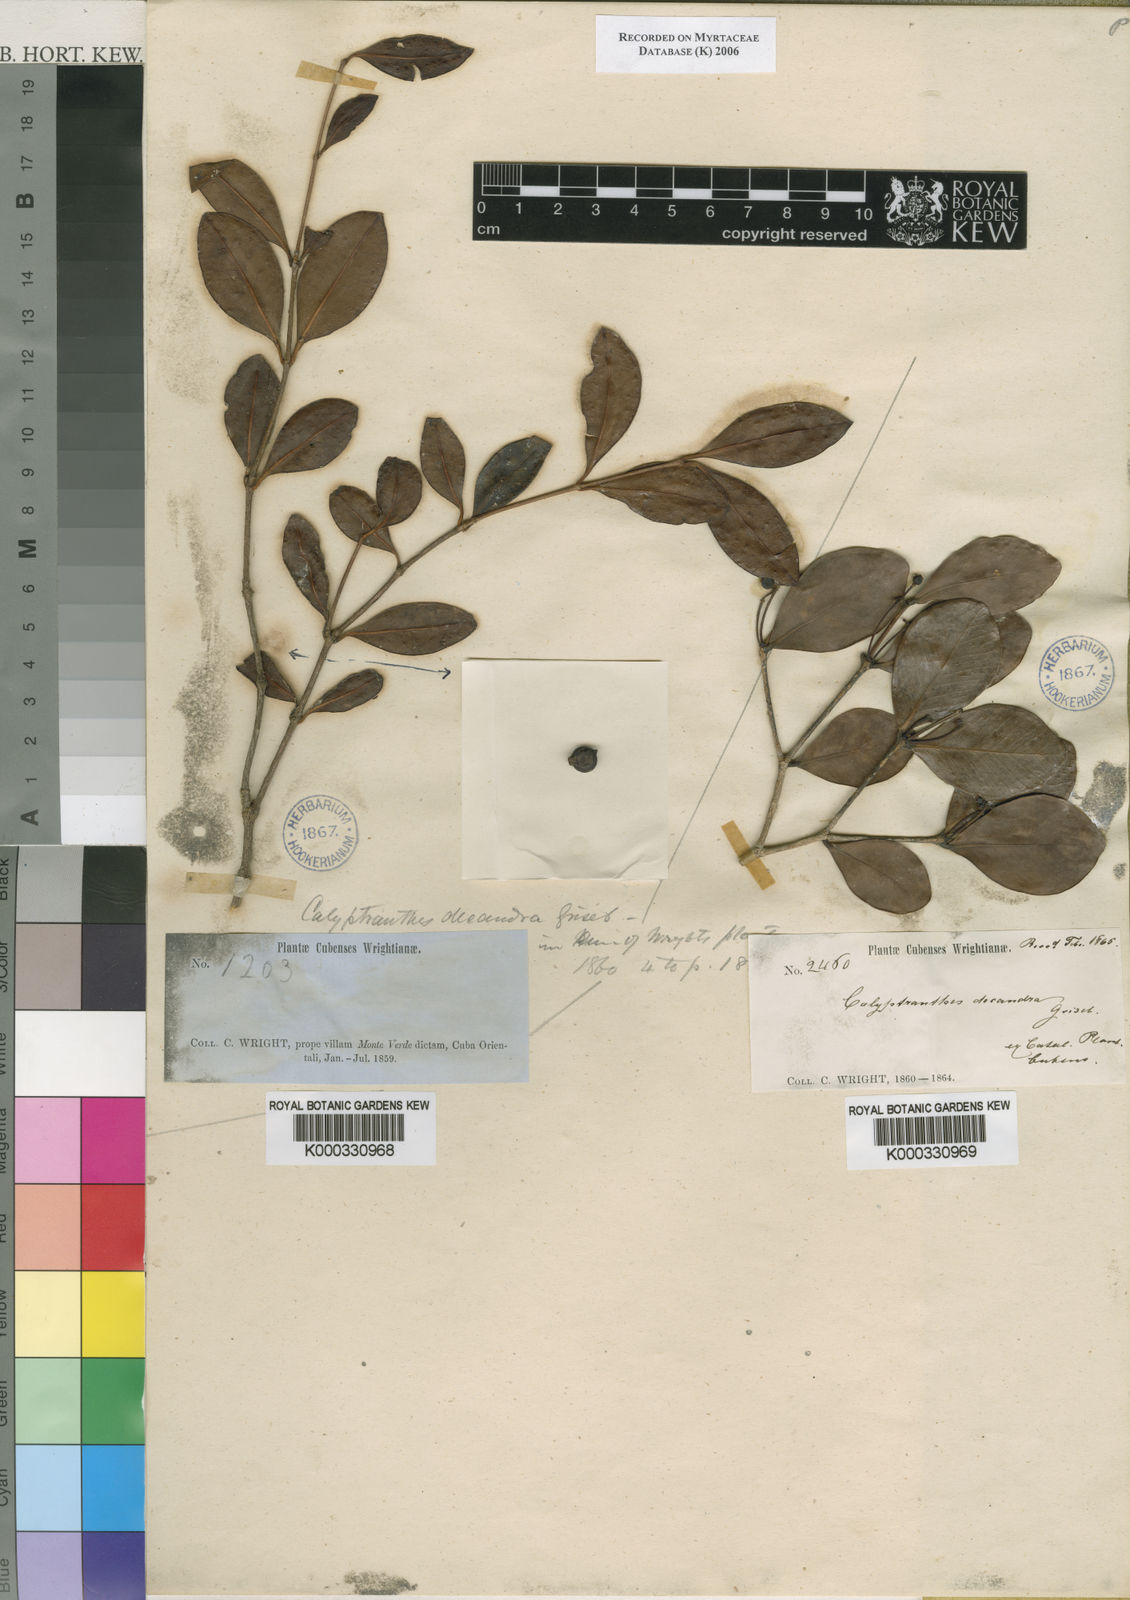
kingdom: Plantae
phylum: Tracheophyta
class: Magnoliopsida
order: Myrtales
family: Myrtaceae
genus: Myrcia
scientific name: Myrcia decandra
